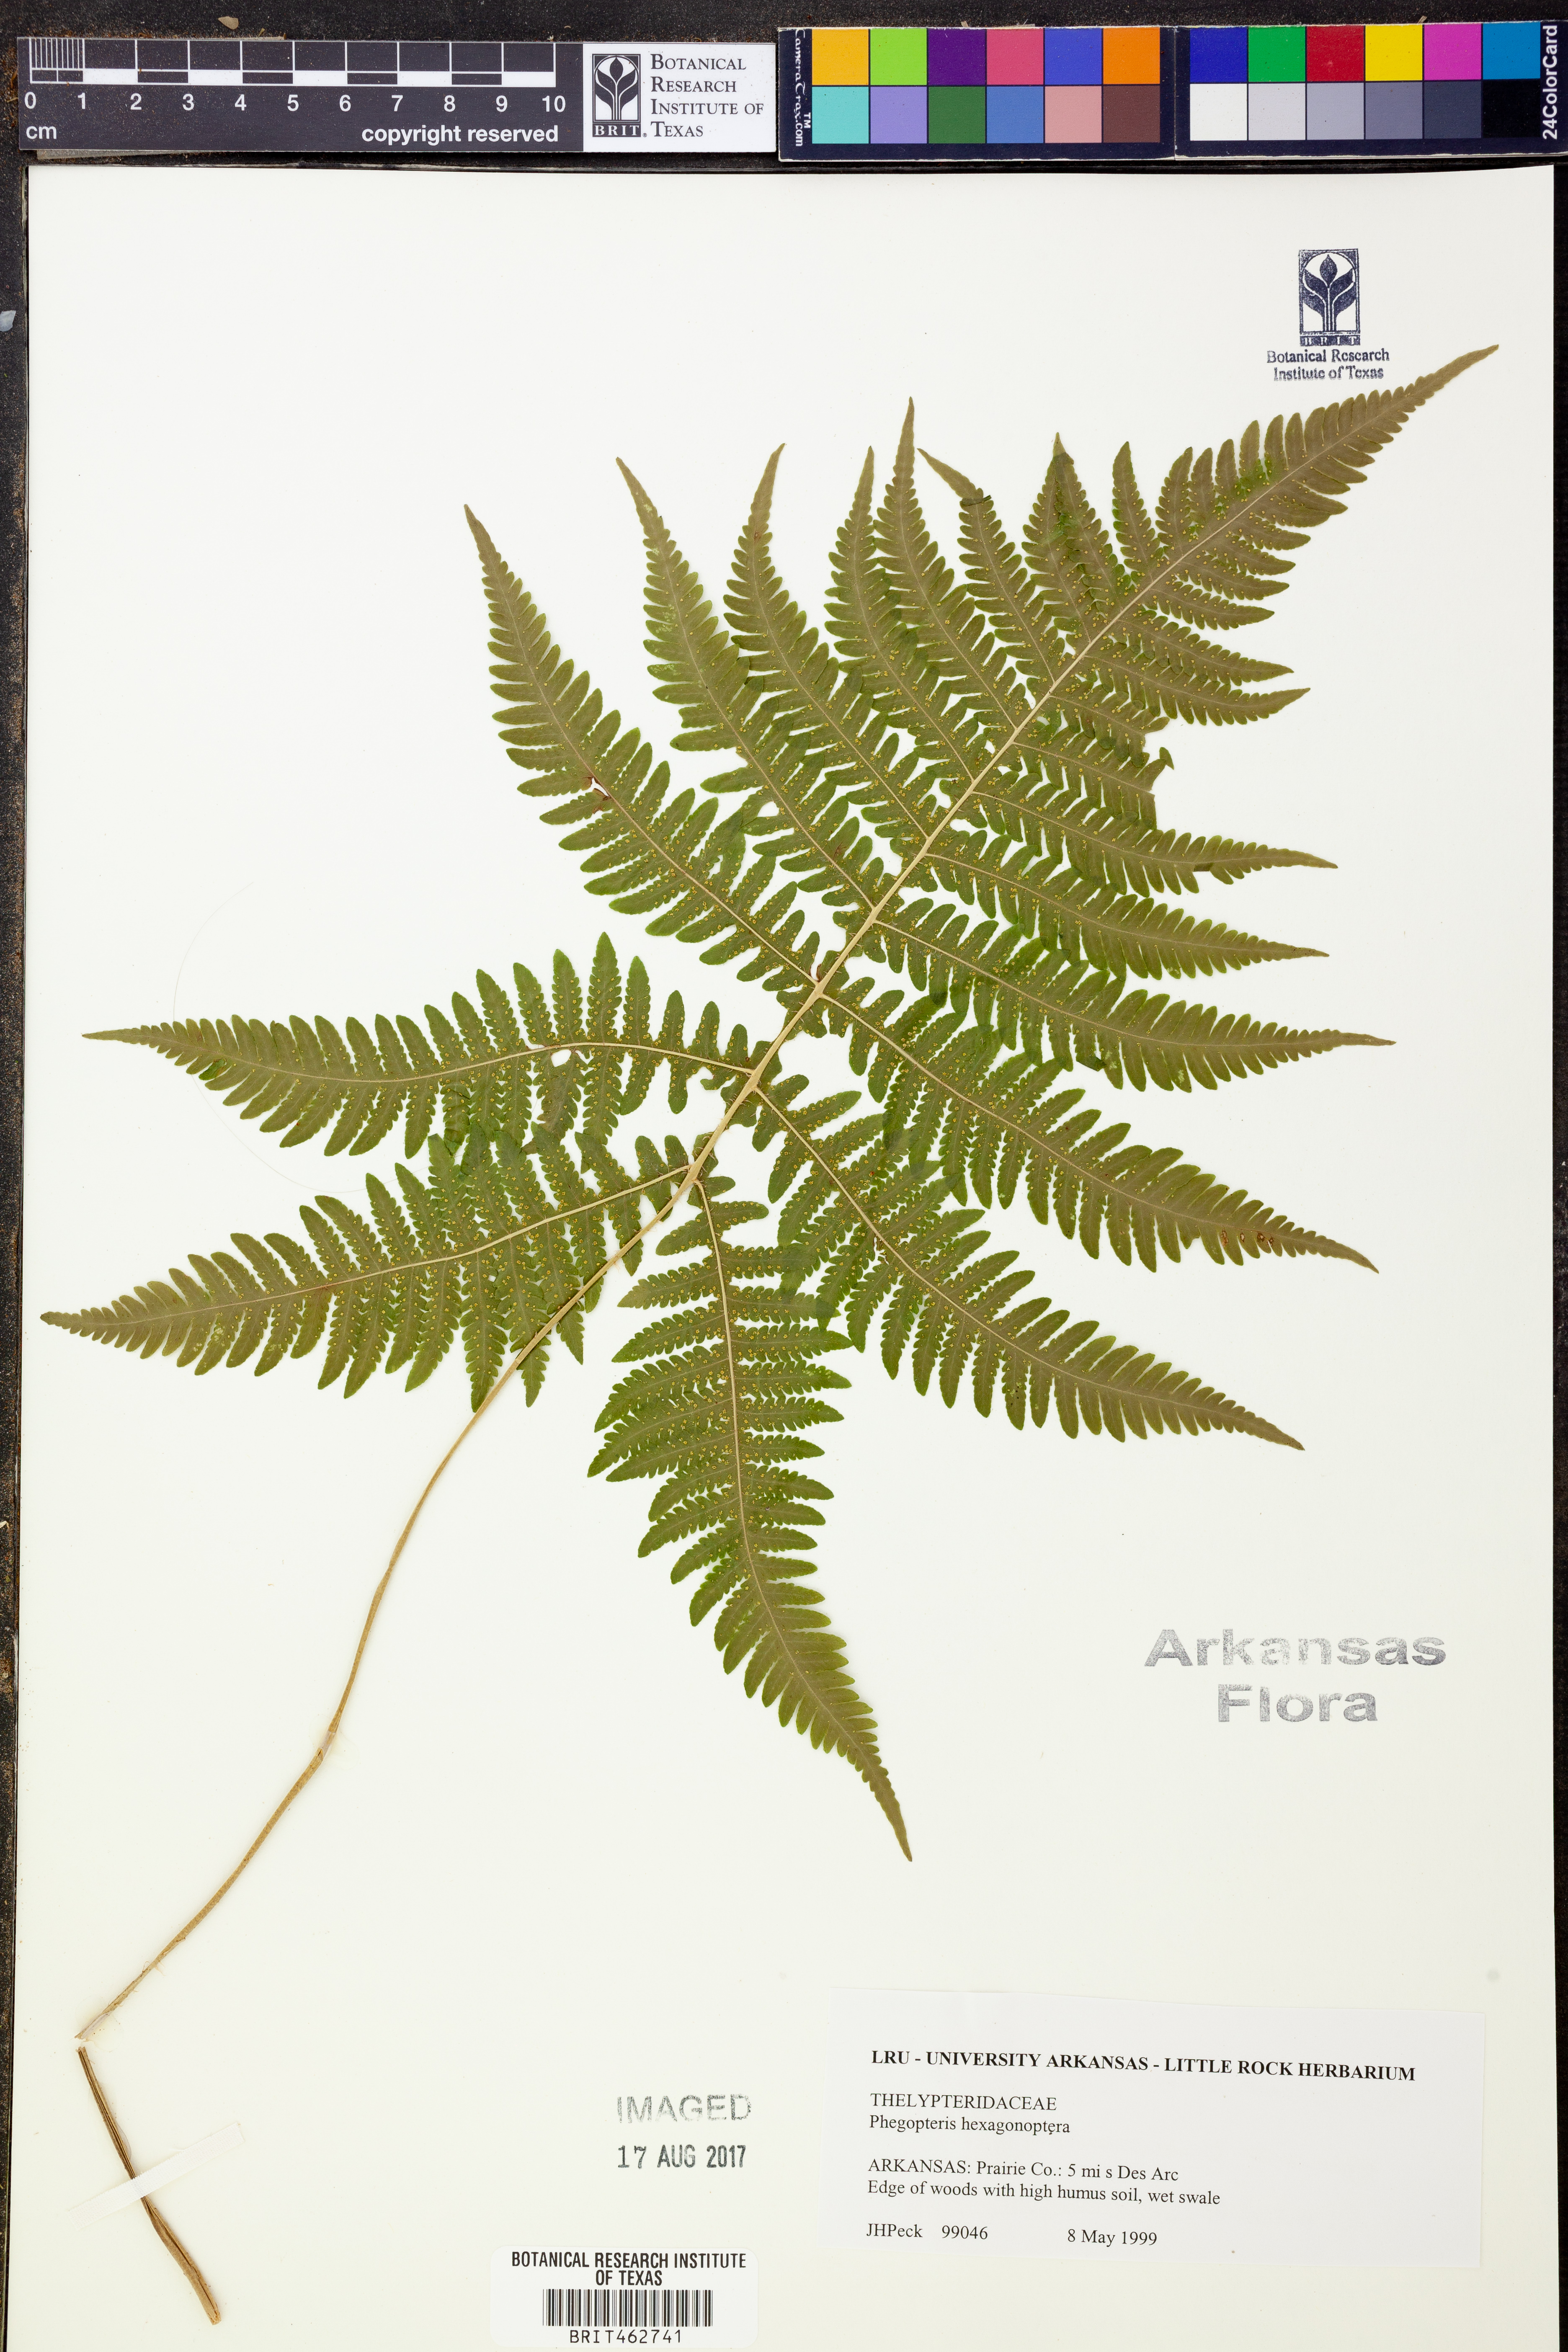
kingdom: Plantae
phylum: Tracheophyta
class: Polypodiopsida
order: Polypodiales
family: Thelypteridaceae
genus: Phegopteris
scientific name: Phegopteris hexagonoptera
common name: Broad beech fern
